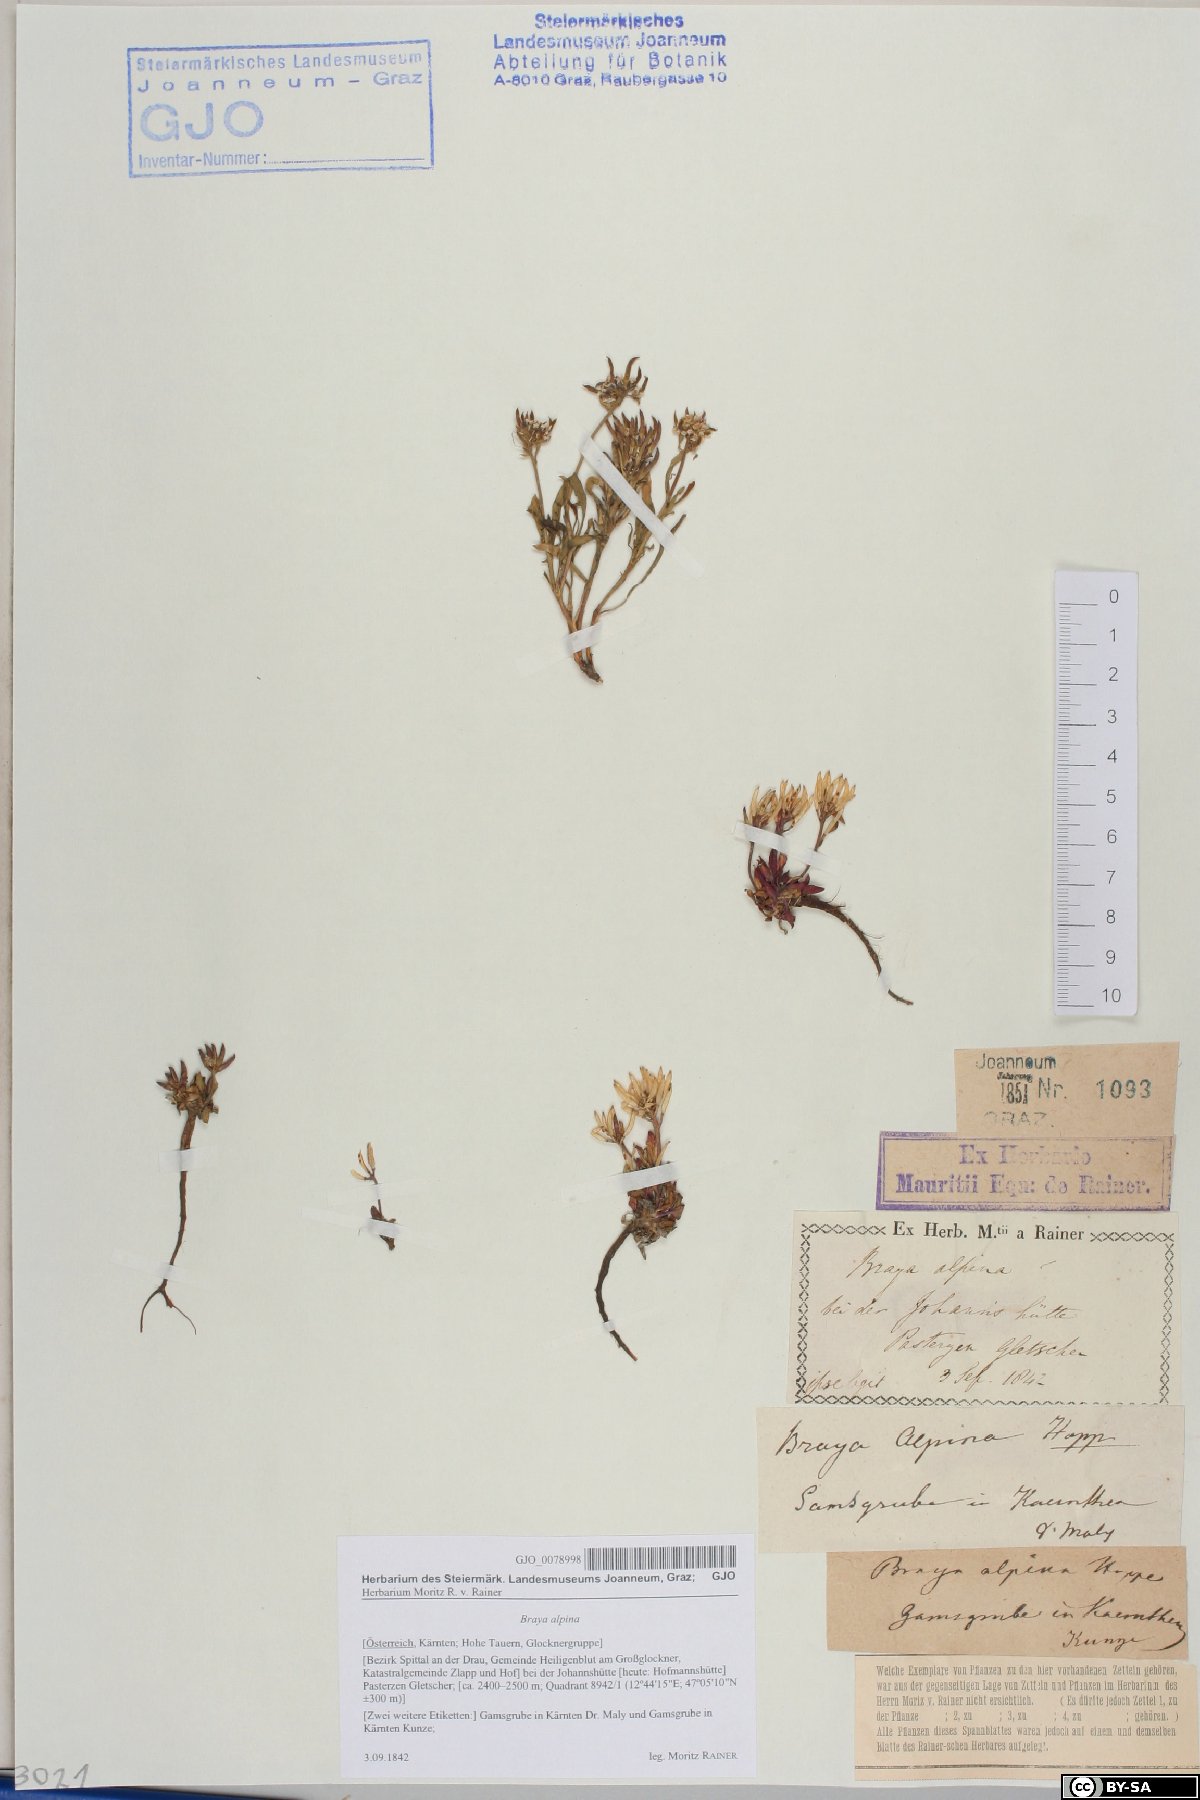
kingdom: Plantae
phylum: Tracheophyta
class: Magnoliopsida
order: Brassicales
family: Brassicaceae
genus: Braya
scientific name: Braya alpina
